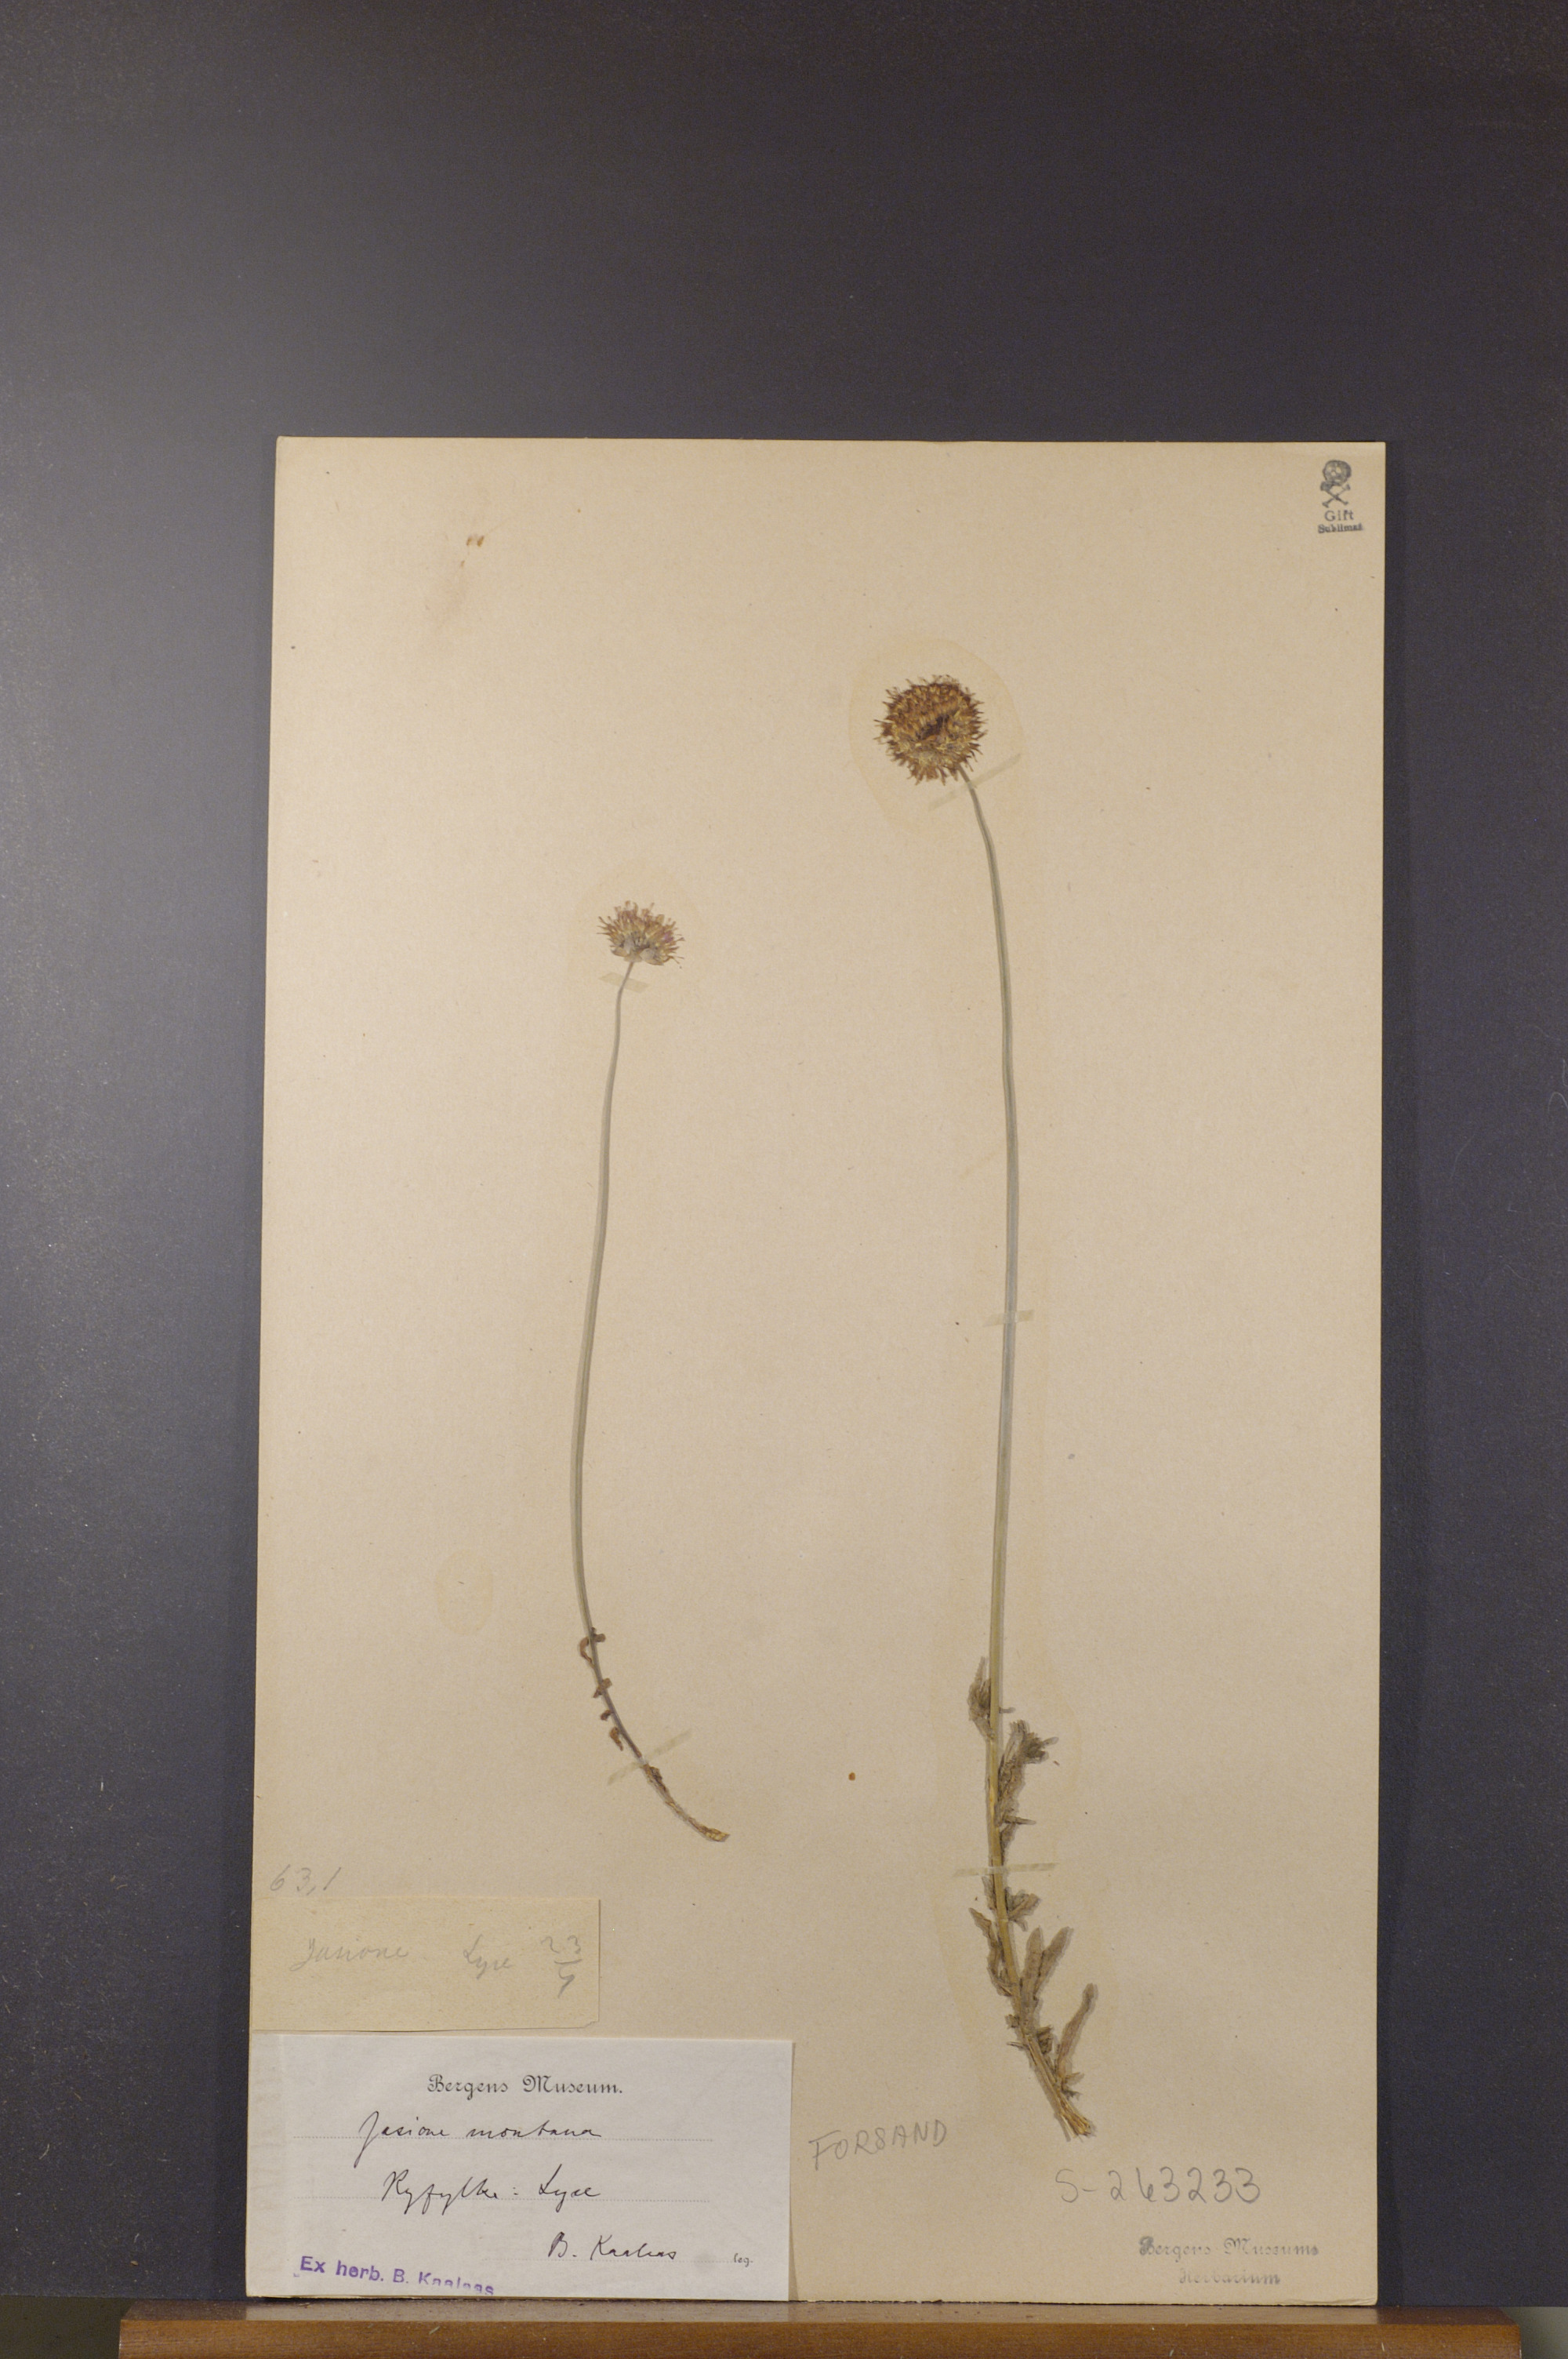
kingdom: Plantae
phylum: Tracheophyta
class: Magnoliopsida
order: Asterales
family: Campanulaceae
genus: Jasione
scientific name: Jasione montana
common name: Sheep's-bit
